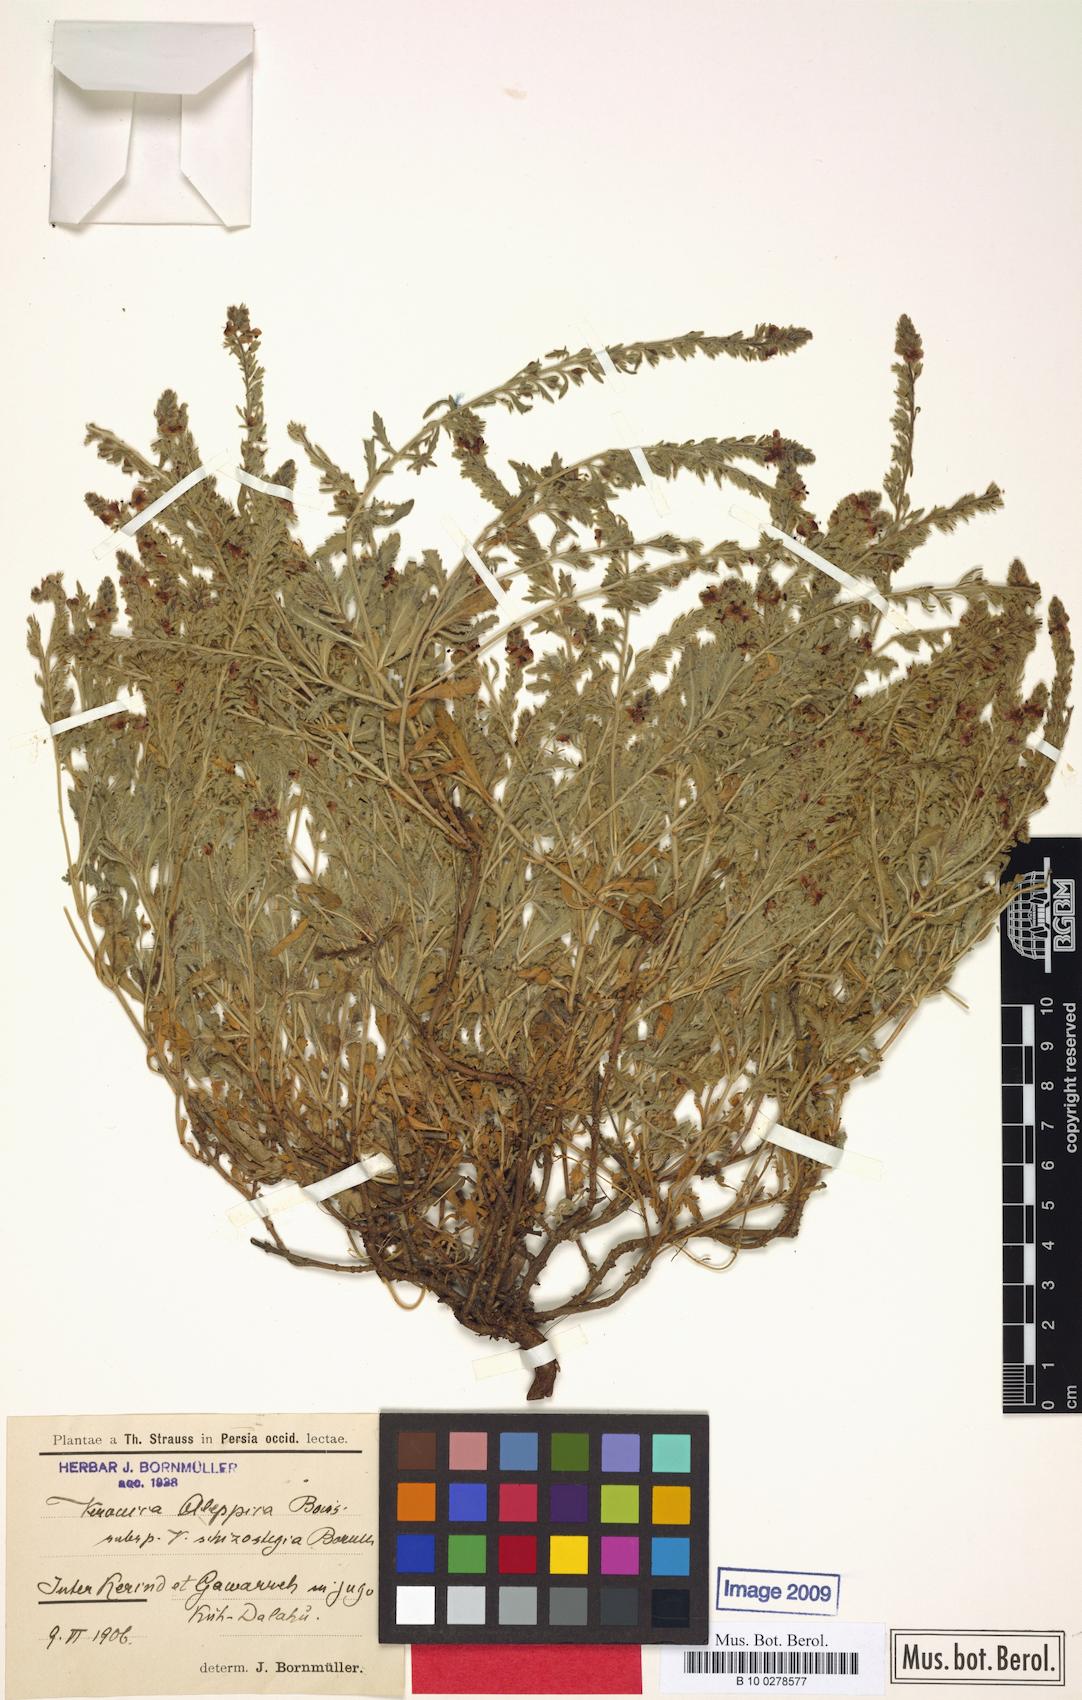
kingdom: Plantae
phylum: Tracheophyta
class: Magnoliopsida
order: Lamiales
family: Plantaginaceae
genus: Veronica
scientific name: Veronica macrostachya
